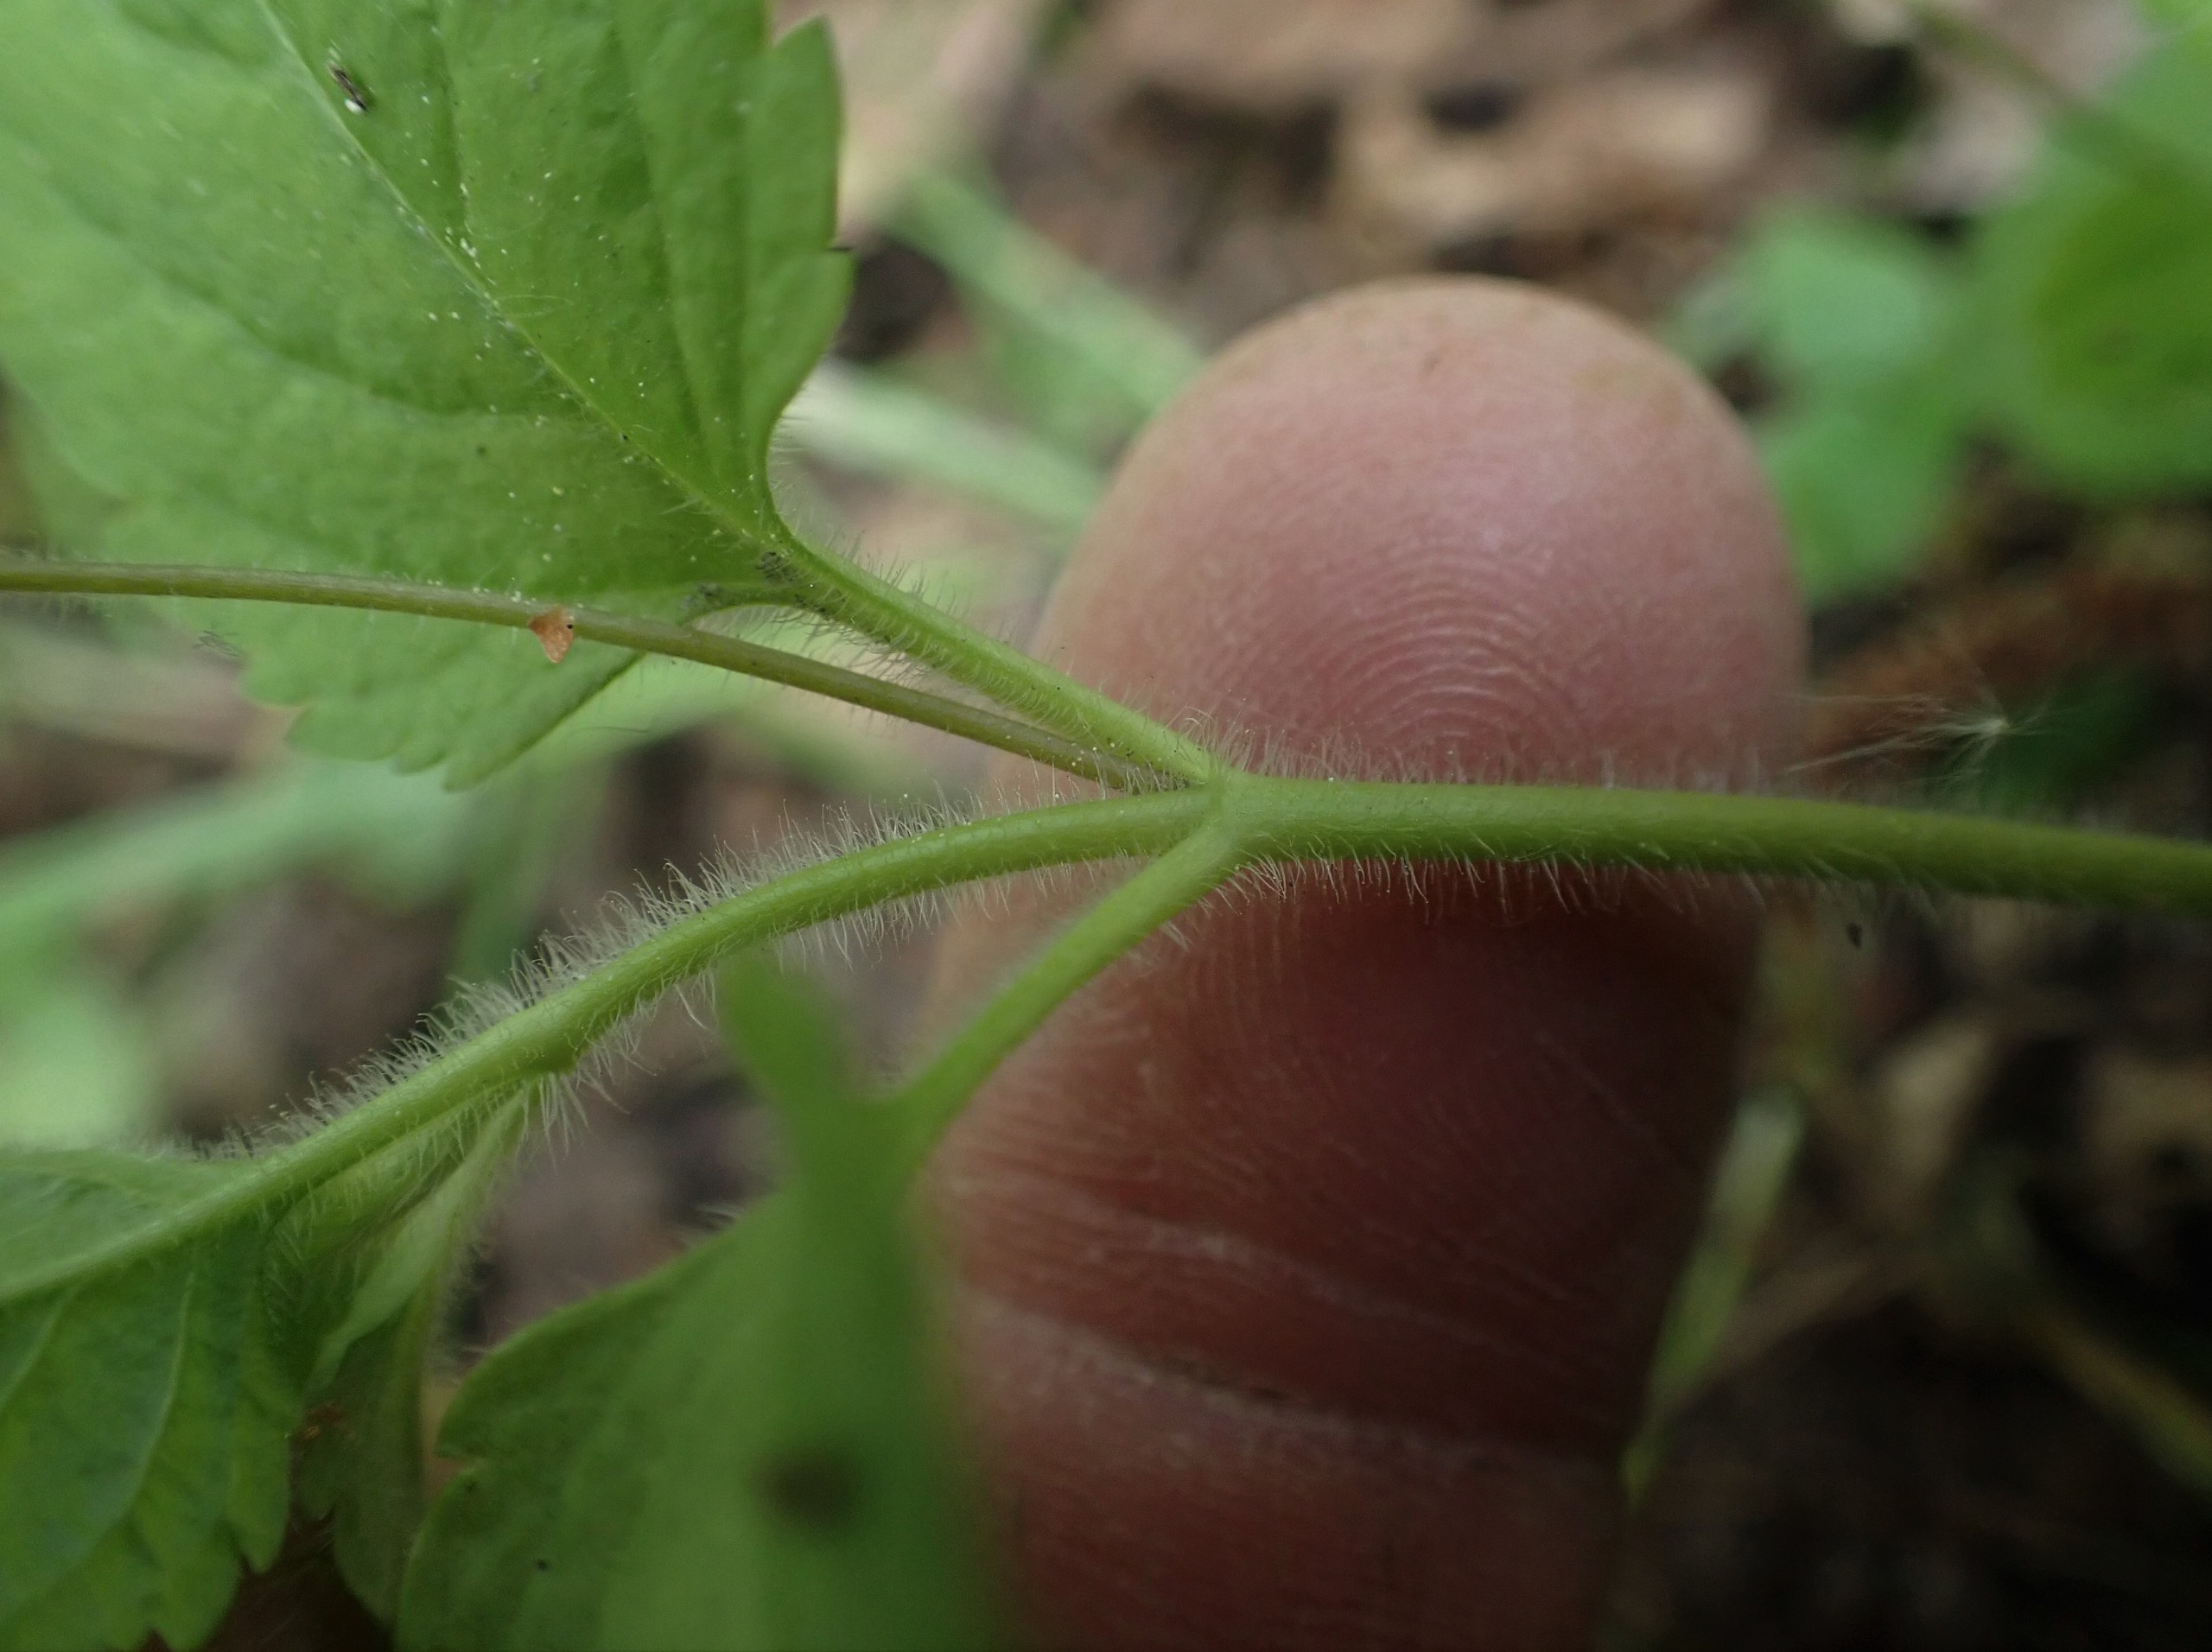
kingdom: Plantae
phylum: Tracheophyta
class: Magnoliopsida
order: Lamiales
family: Plantaginaceae
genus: Veronica
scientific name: Veronica montana
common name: Bjerg-ærenpris
